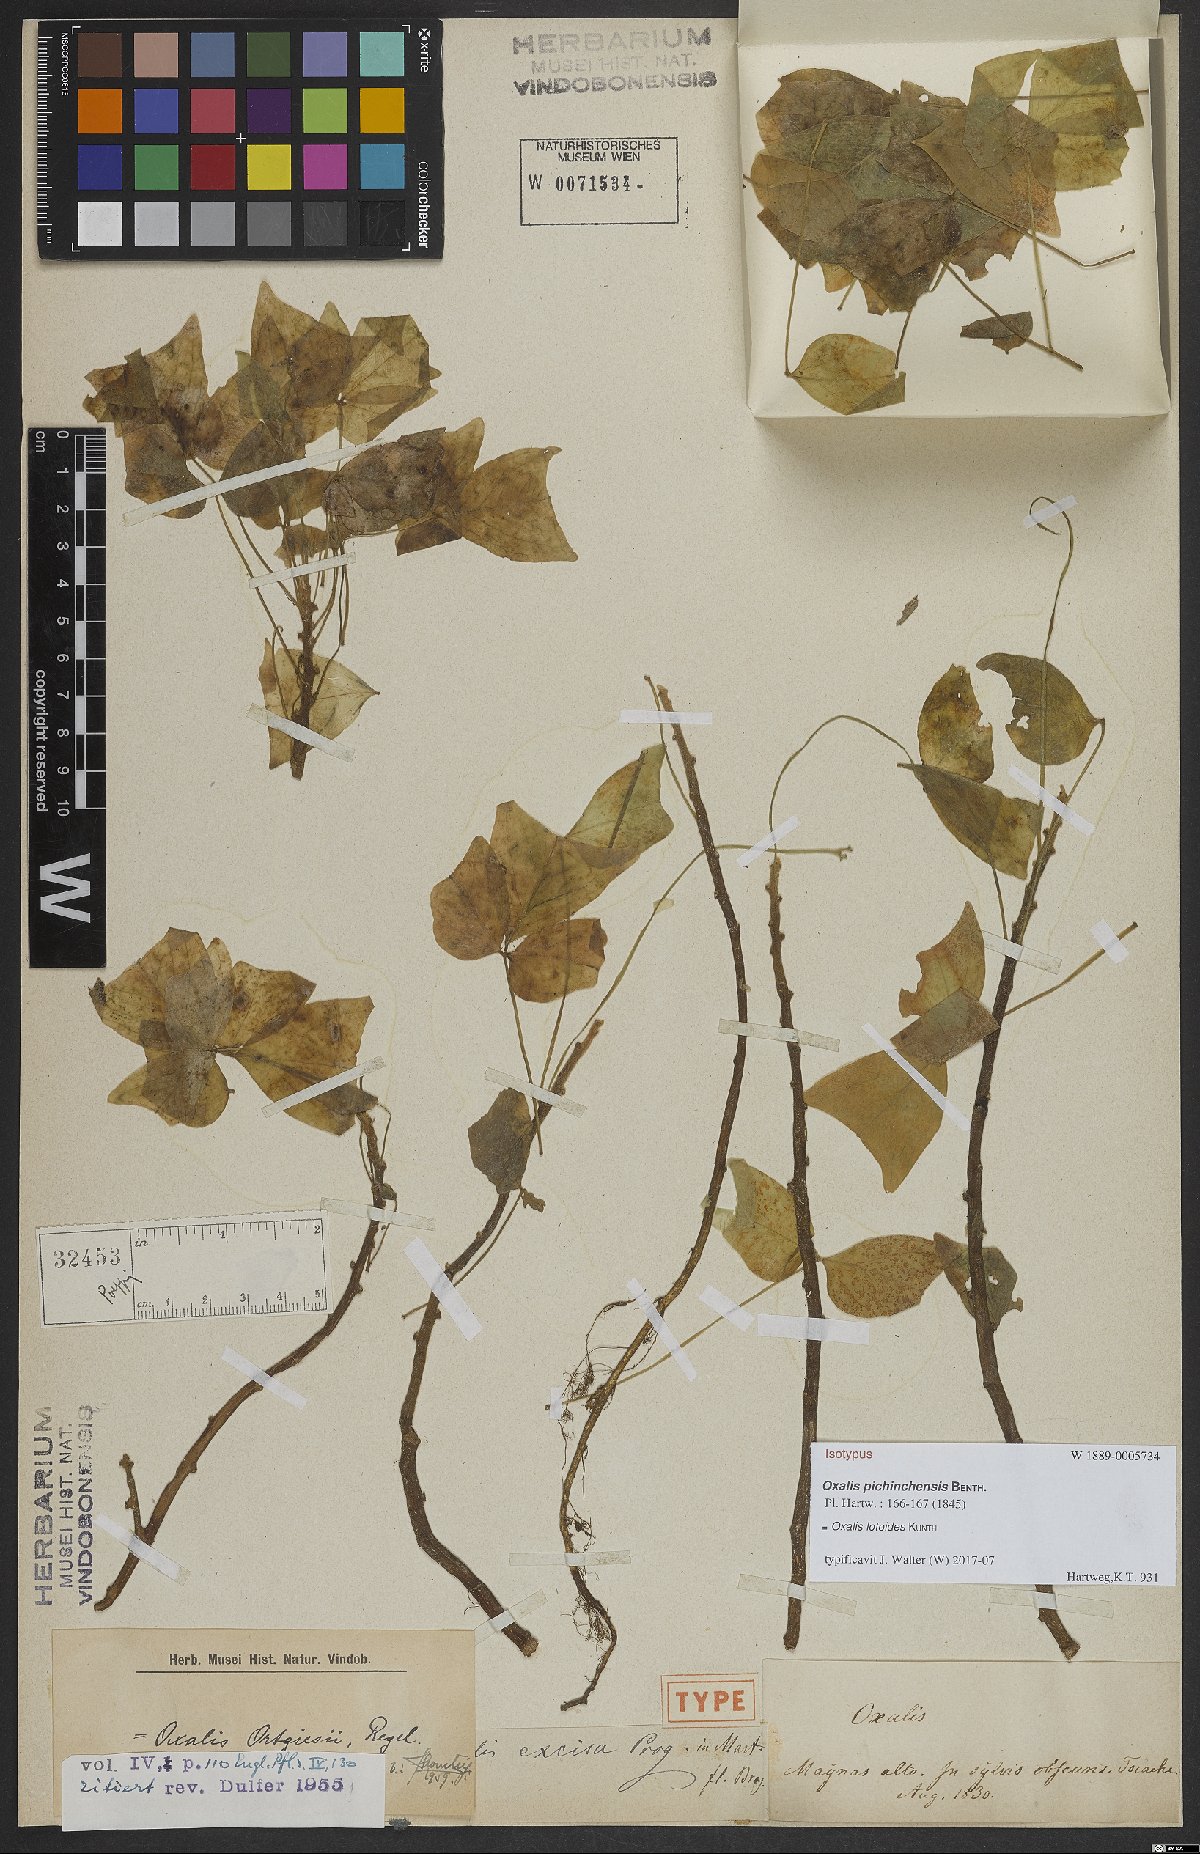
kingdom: Plantae
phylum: Tracheophyta
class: Magnoliopsida
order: Oxalidales
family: Oxalidaceae
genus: Oxalis
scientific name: Oxalis ortgiesii
